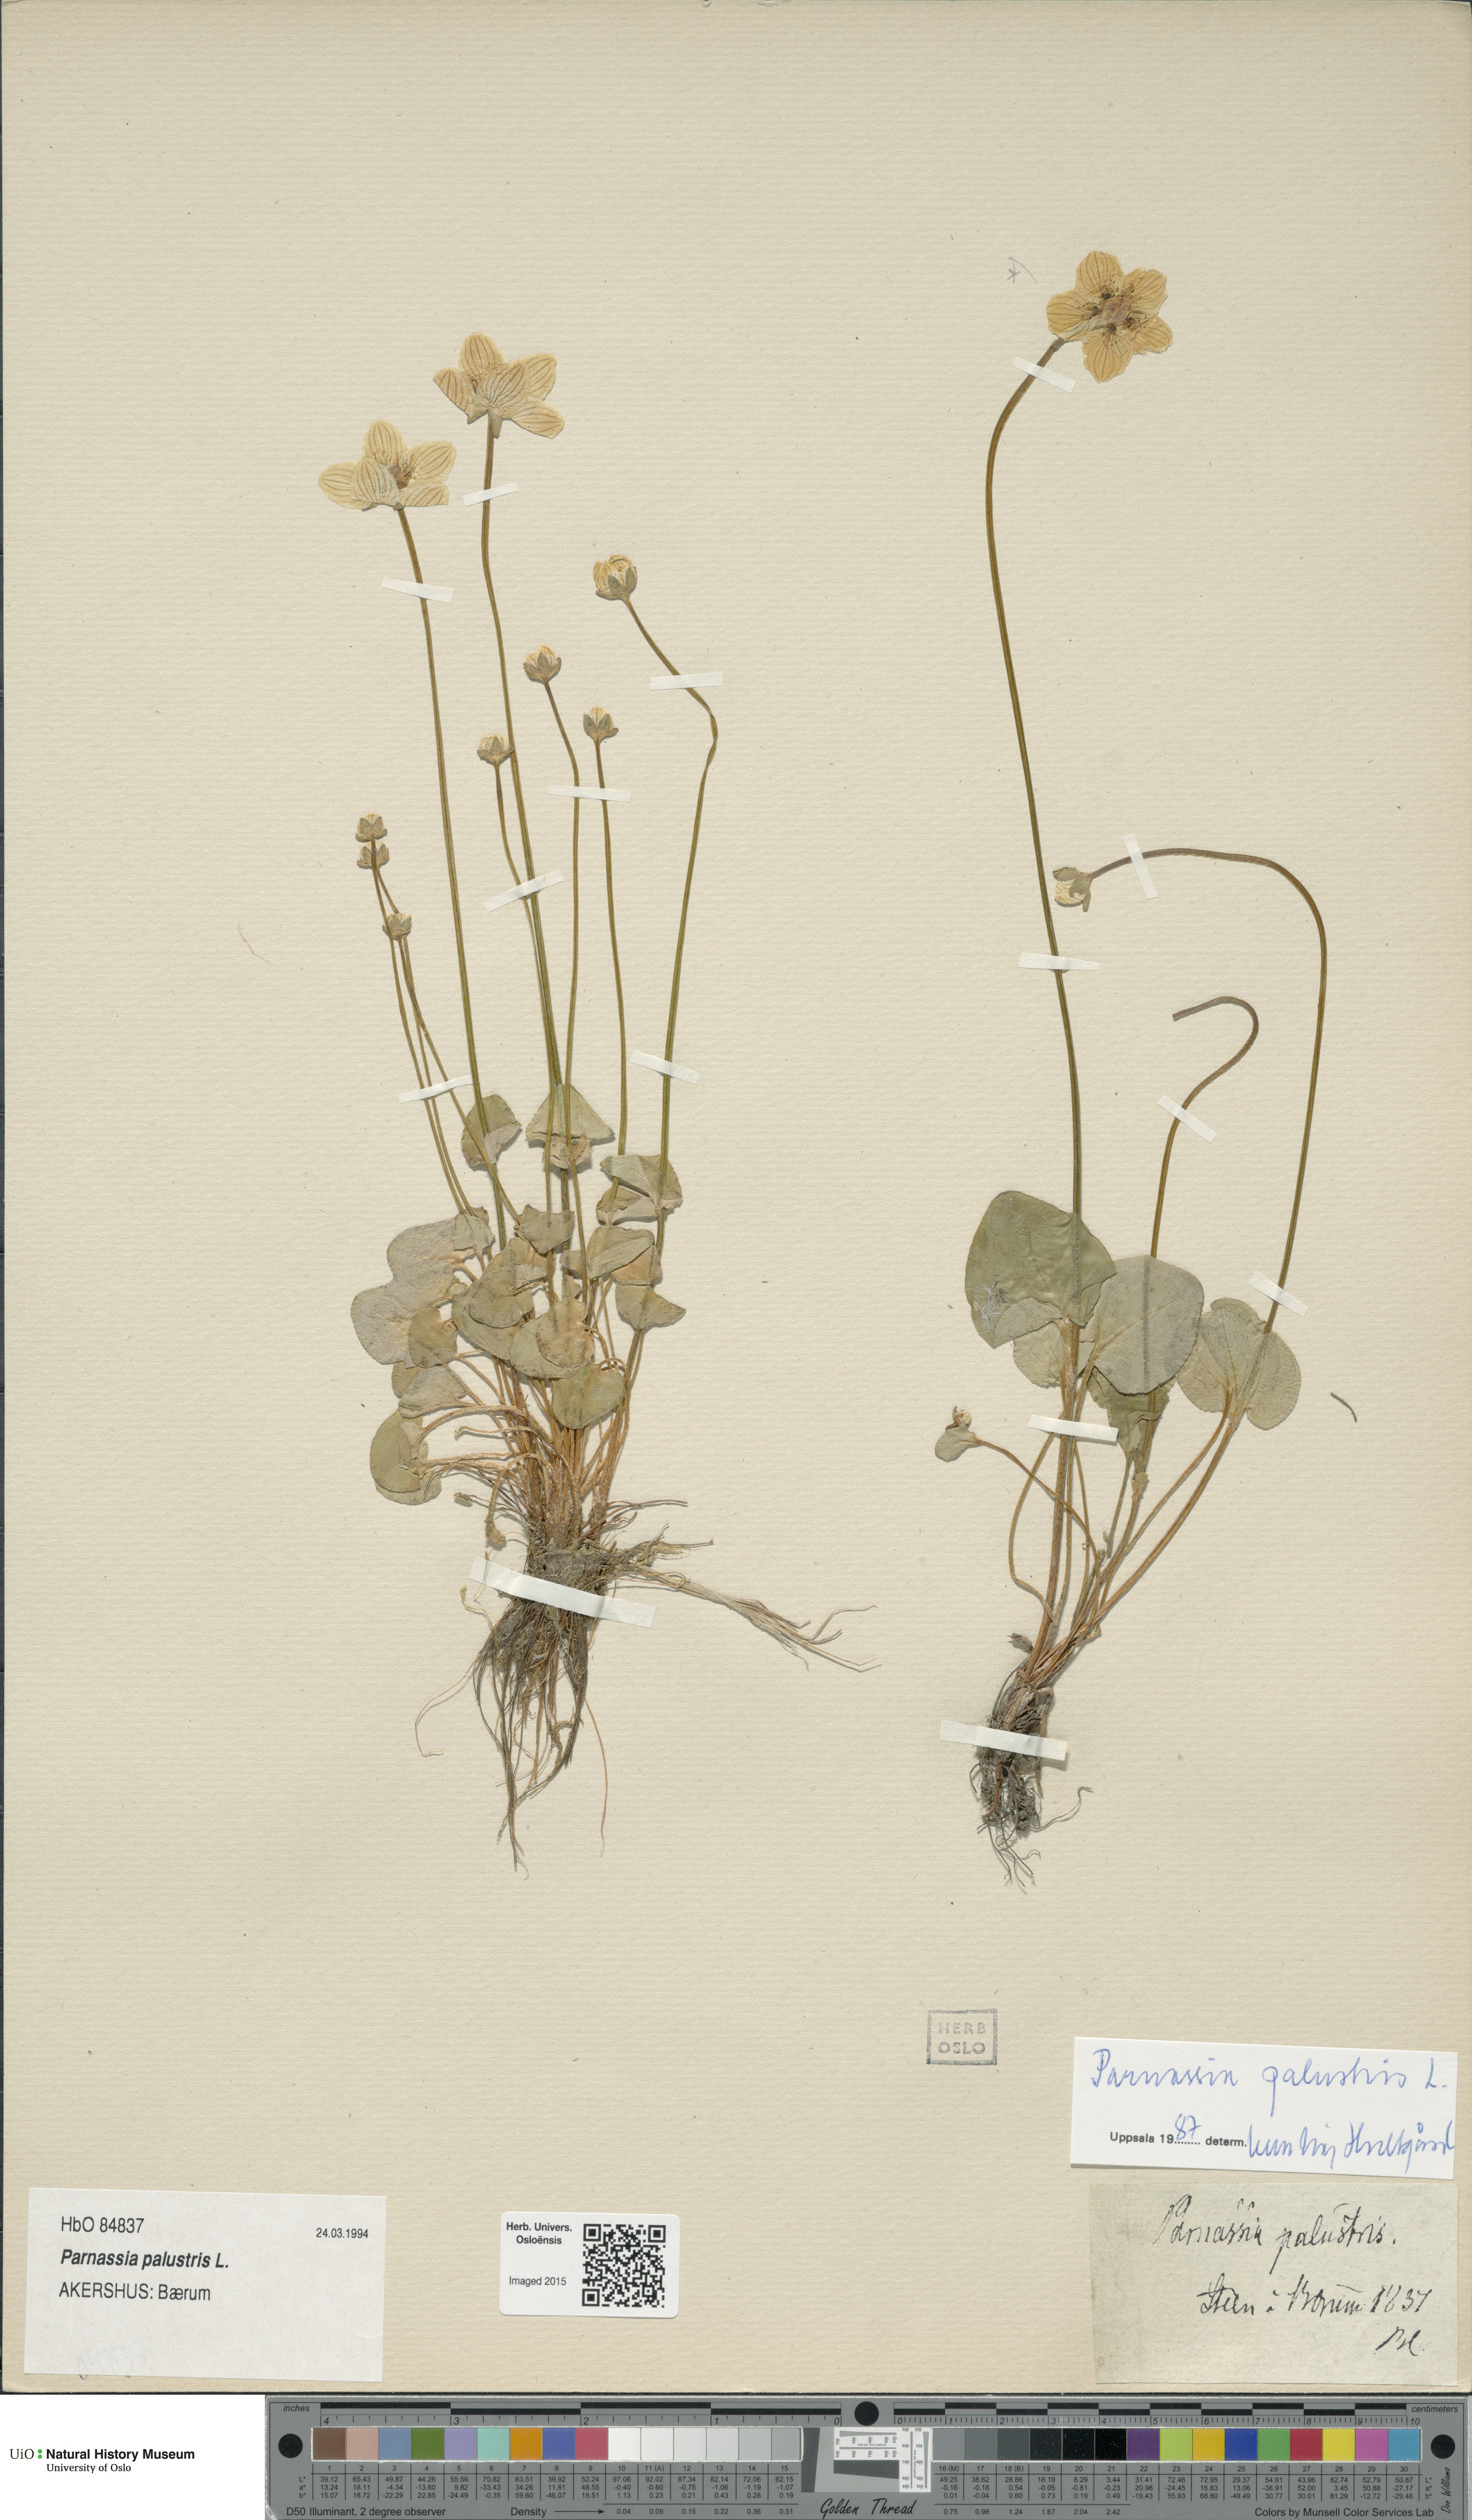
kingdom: Plantae
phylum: Tracheophyta
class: Magnoliopsida
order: Celastrales
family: Parnassiaceae
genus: Parnassia
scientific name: Parnassia palustris
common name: Grass-of-parnassus
